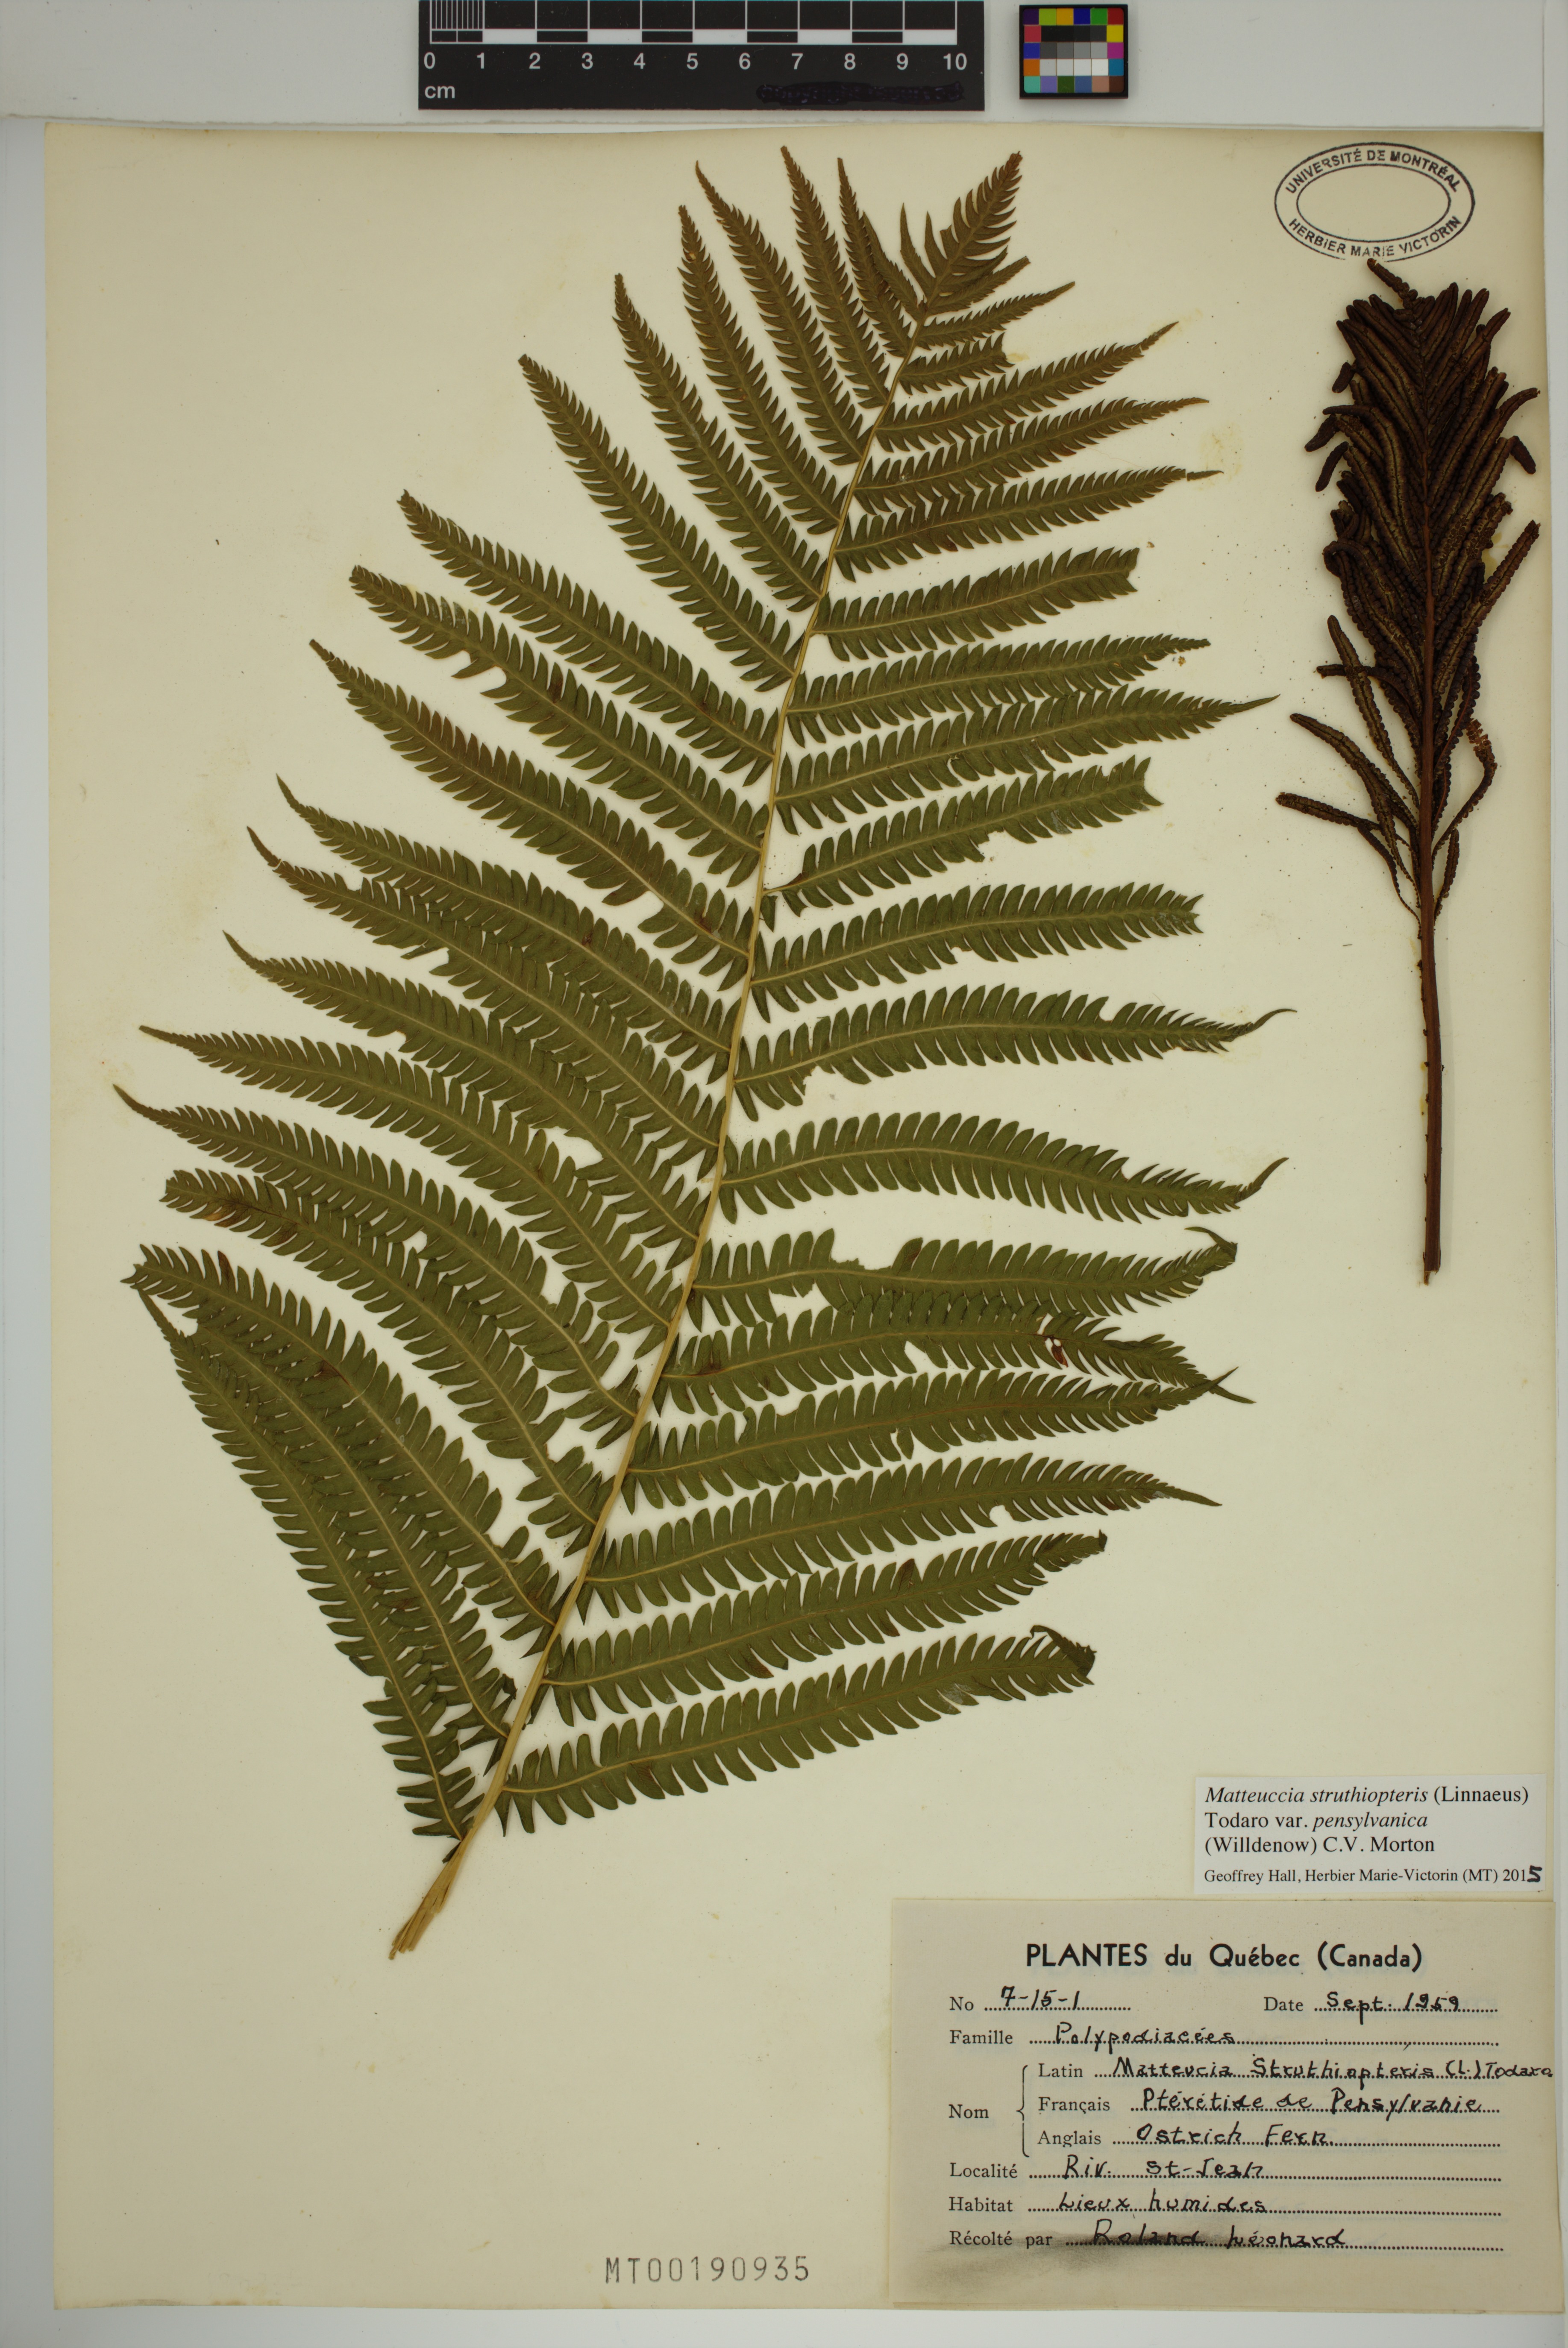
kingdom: Plantae
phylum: Tracheophyta
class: Polypodiopsida
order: Polypodiales
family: Onocleaceae
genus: Matteuccia
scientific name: Matteuccia pensylvanica
